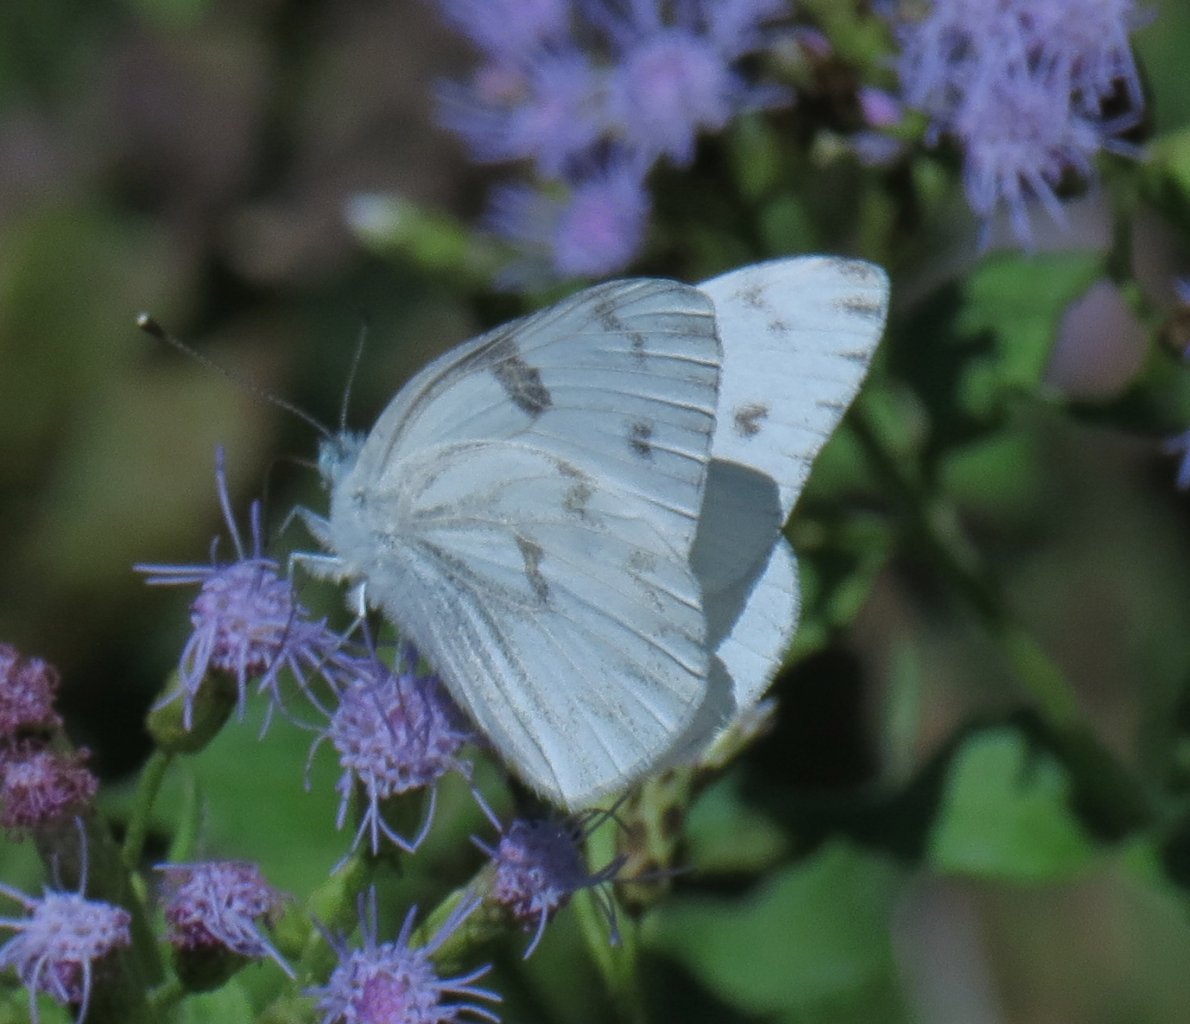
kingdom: Animalia
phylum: Arthropoda
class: Insecta
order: Lepidoptera
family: Pieridae
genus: Pontia
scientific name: Pontia protodice
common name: Checkered White
